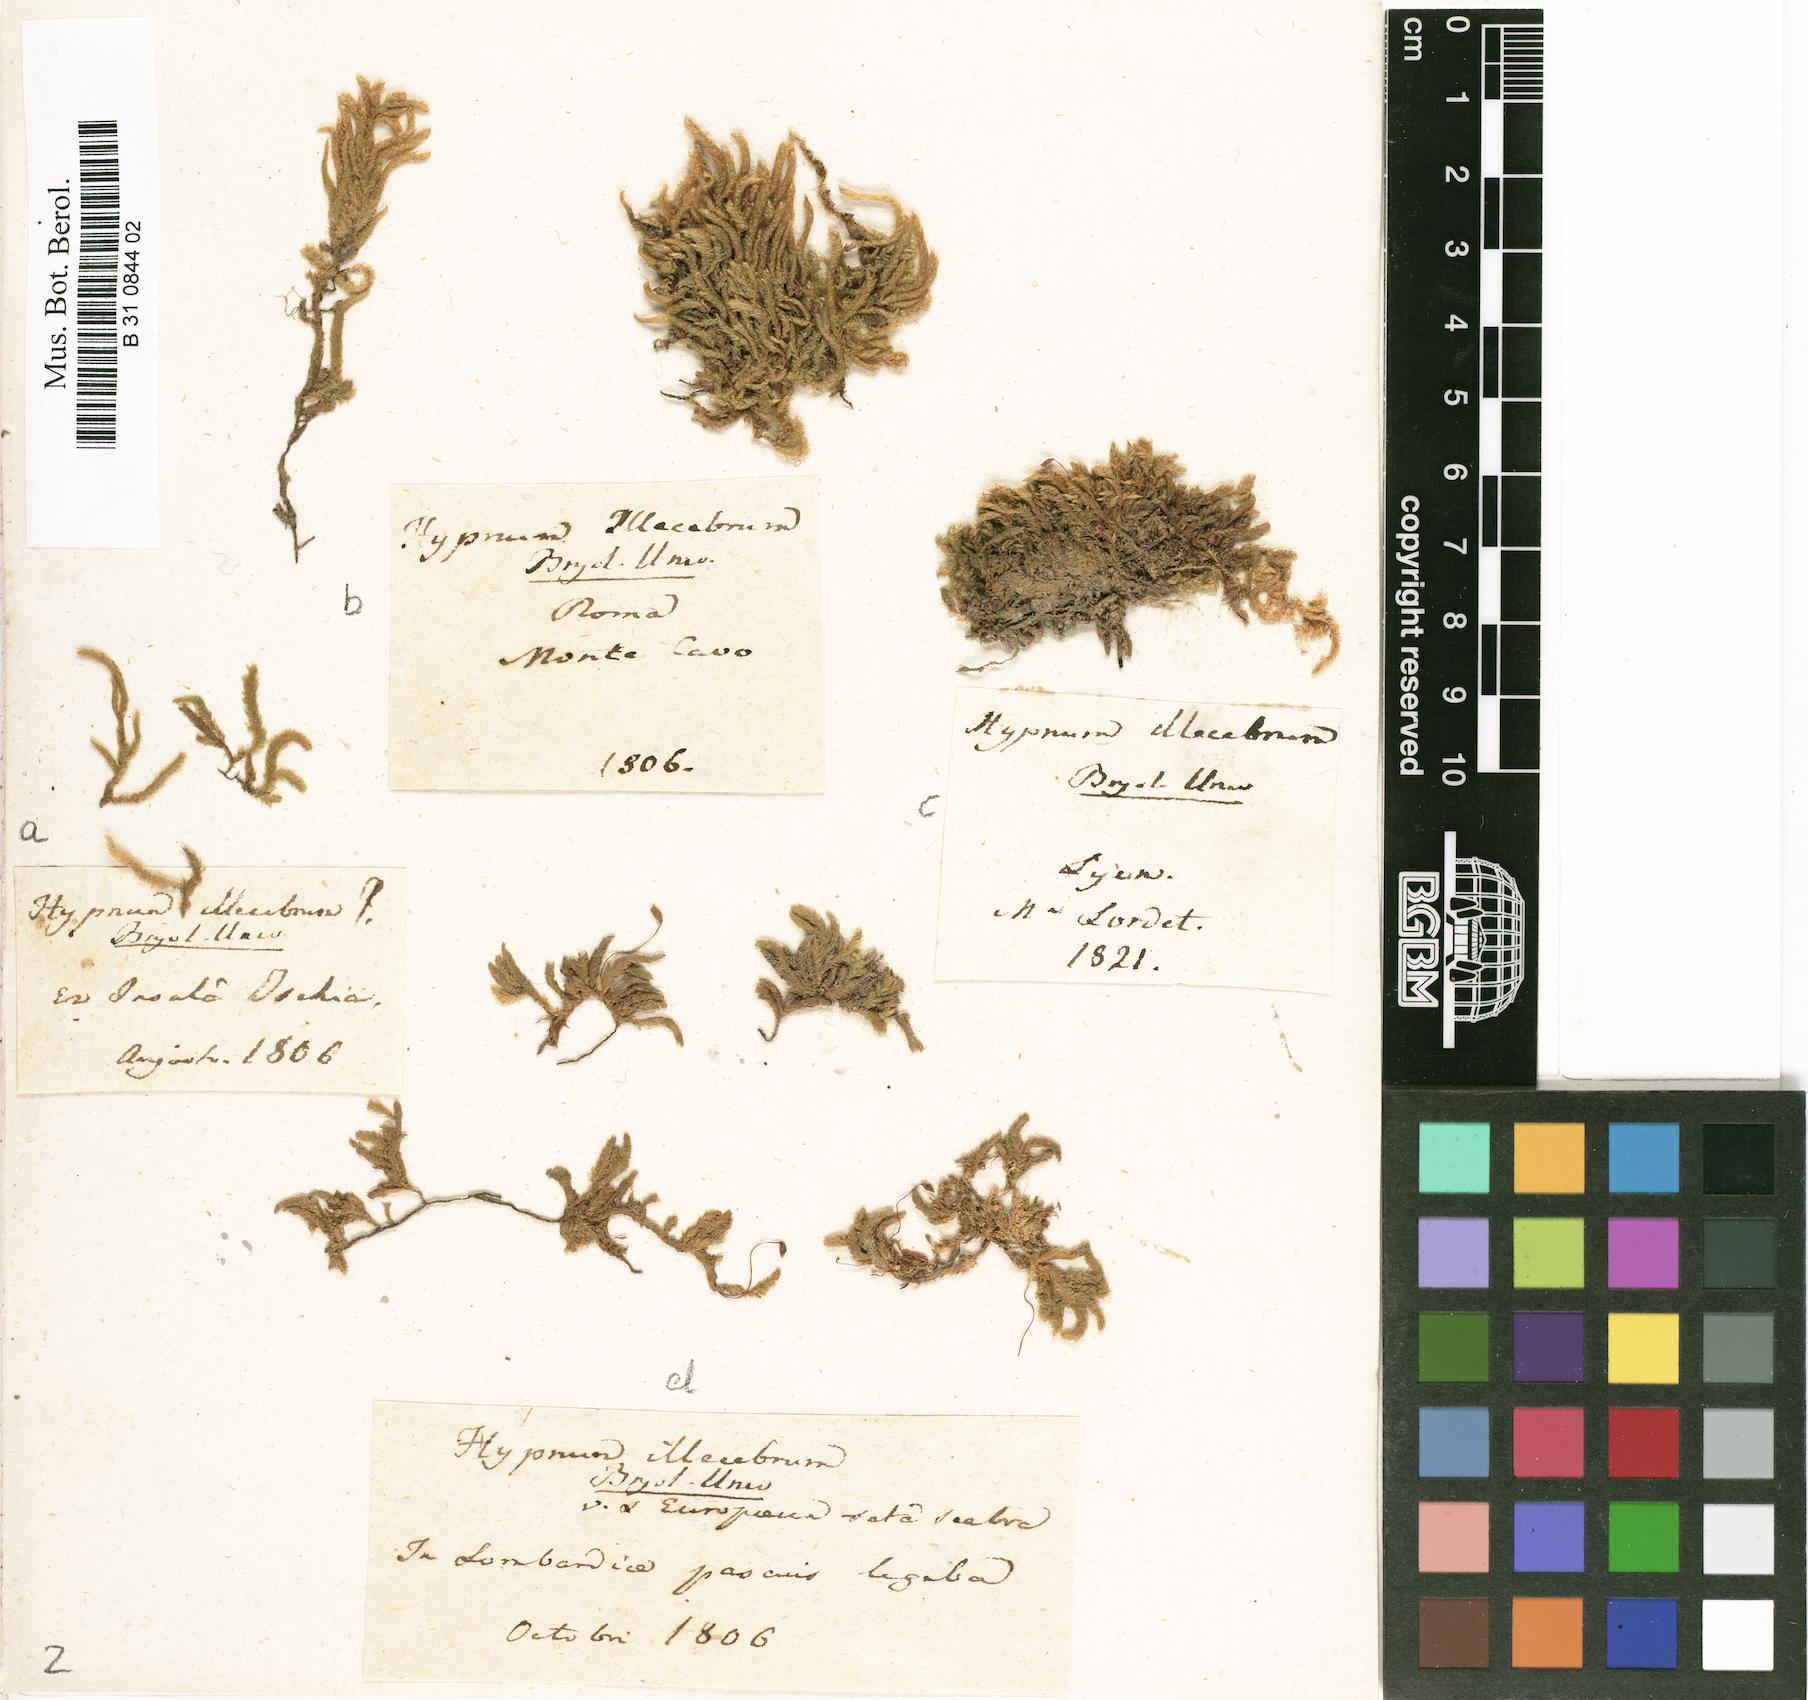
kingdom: Plantae
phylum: Bryophyta
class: Bryopsida
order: Hypnales
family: Brachytheciaceae
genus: Bryoandersonia
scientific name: Bryoandersonia illecebra
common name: Spoon-leaved moss
